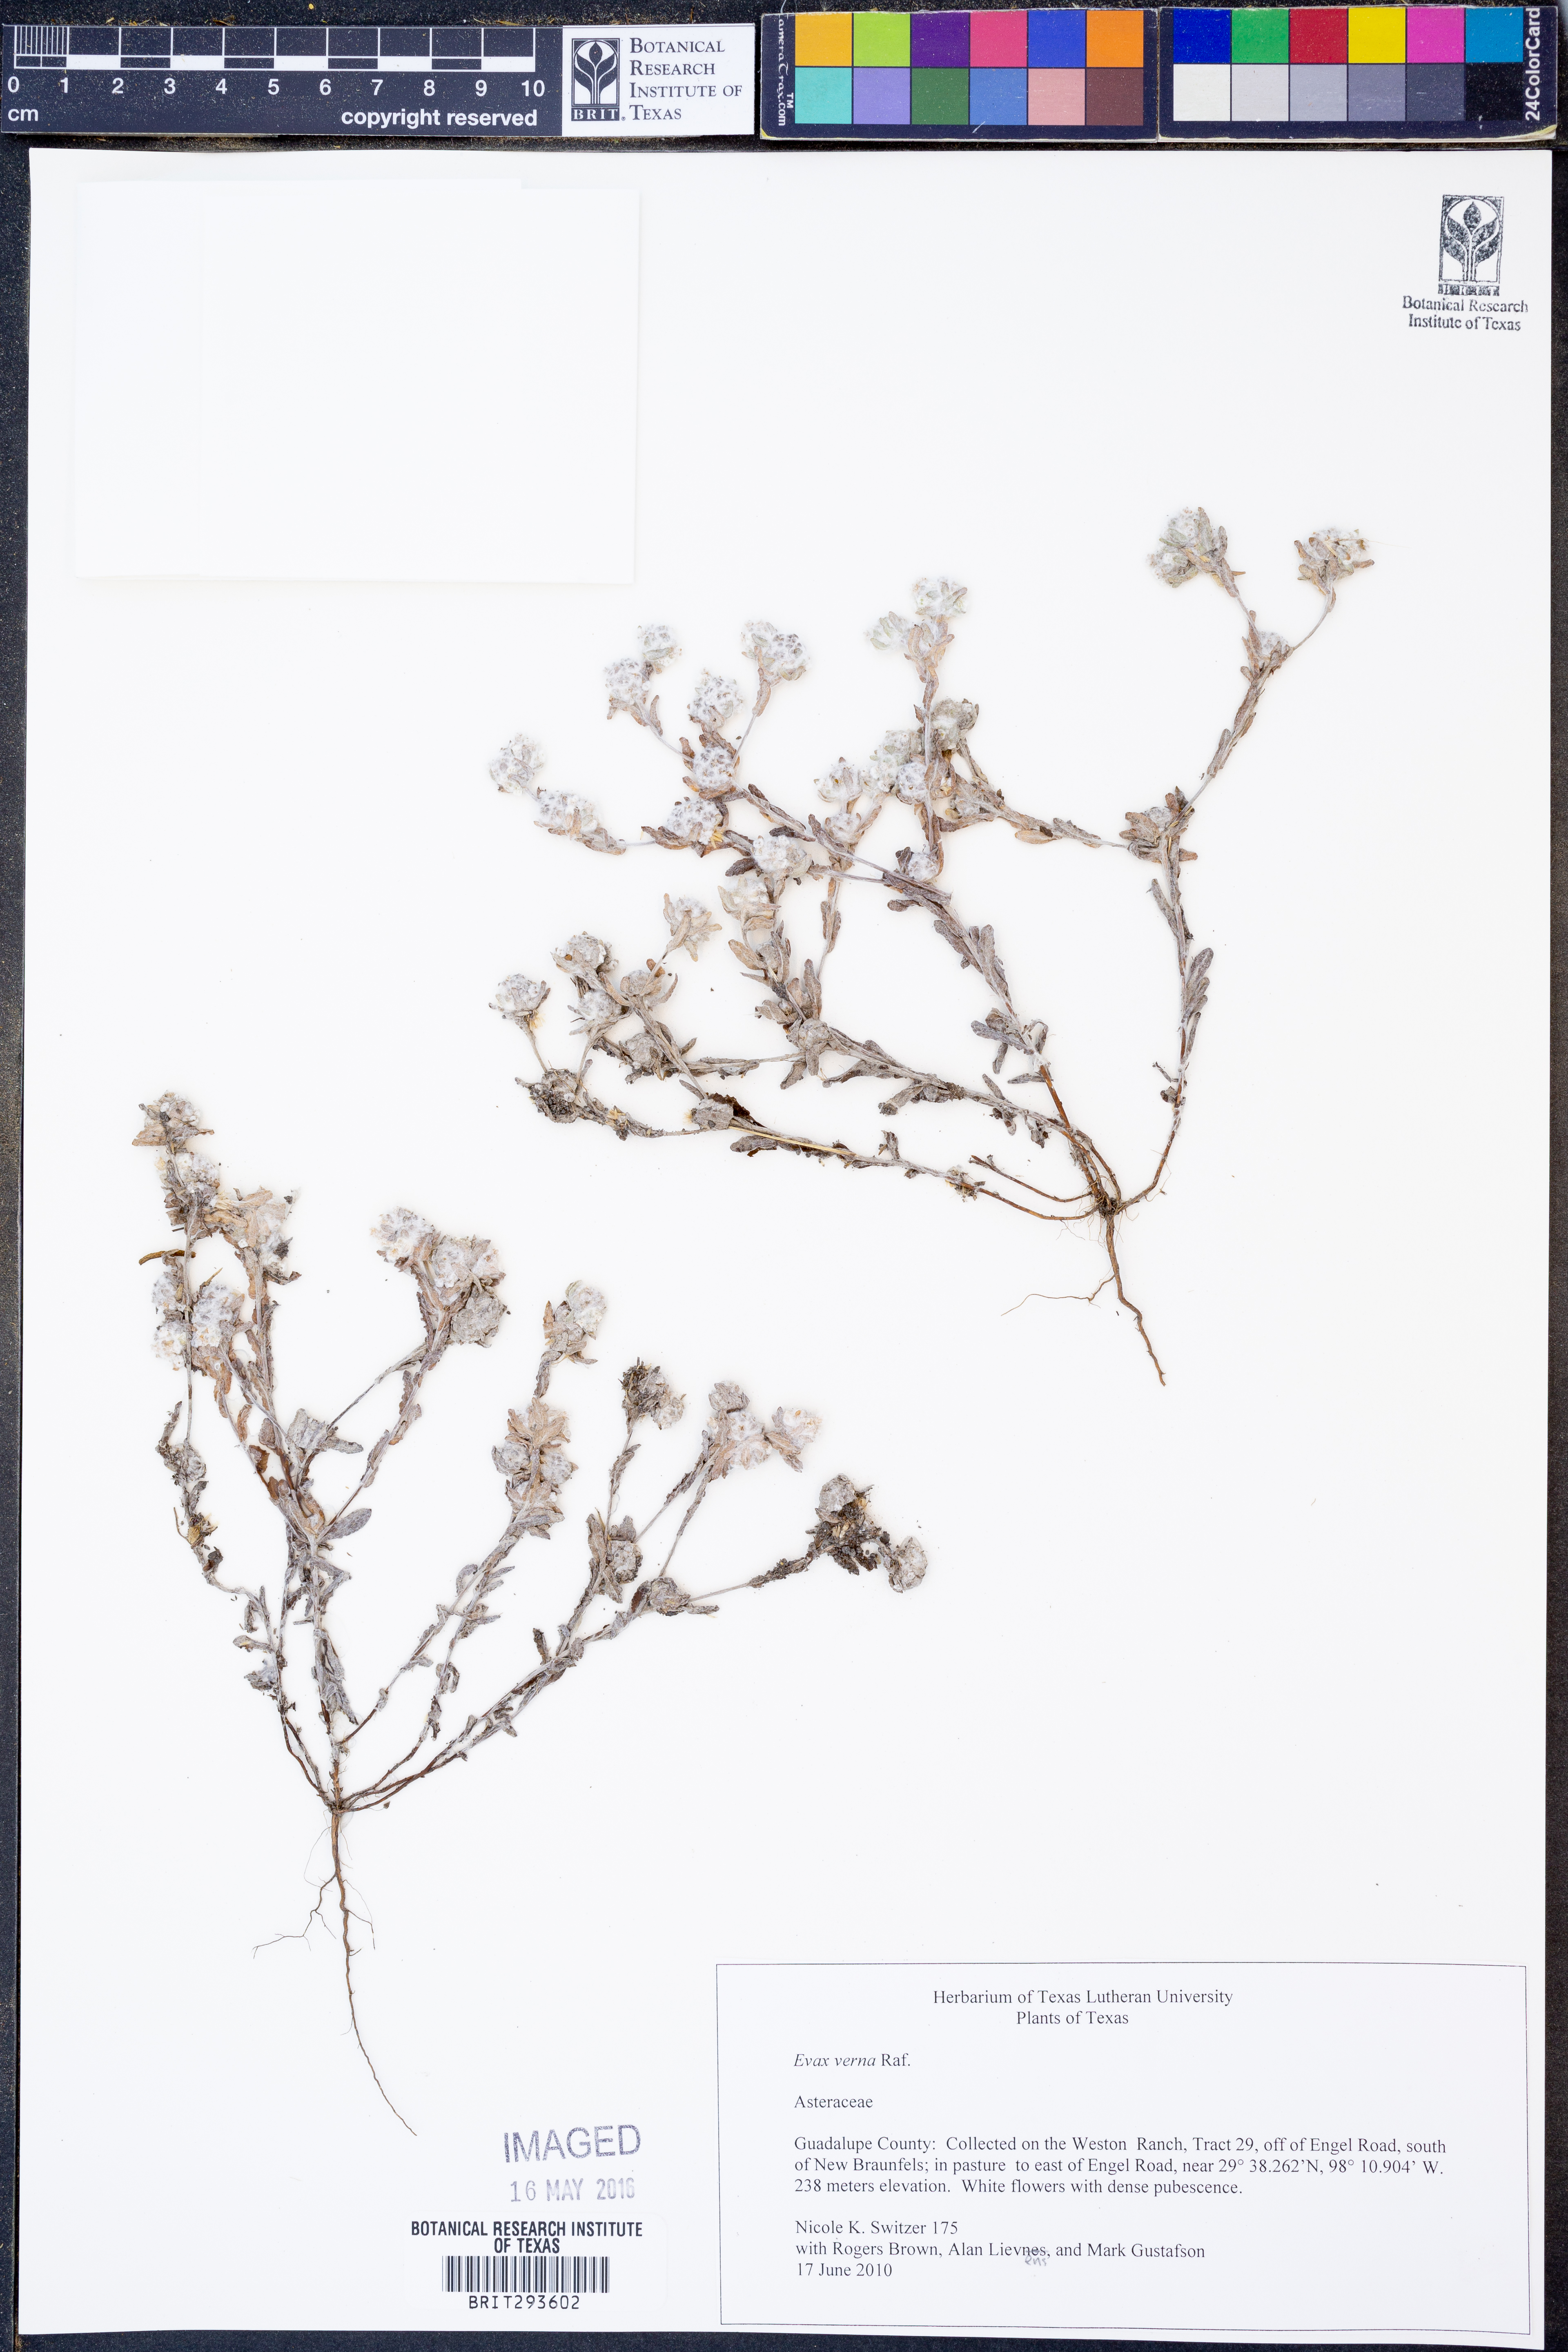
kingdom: Plantae
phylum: Tracheophyta
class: Magnoliopsida
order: Asterales
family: Asteraceae
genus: Diaperia
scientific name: Diaperia verna
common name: Many-stem rabbit-tobacco
